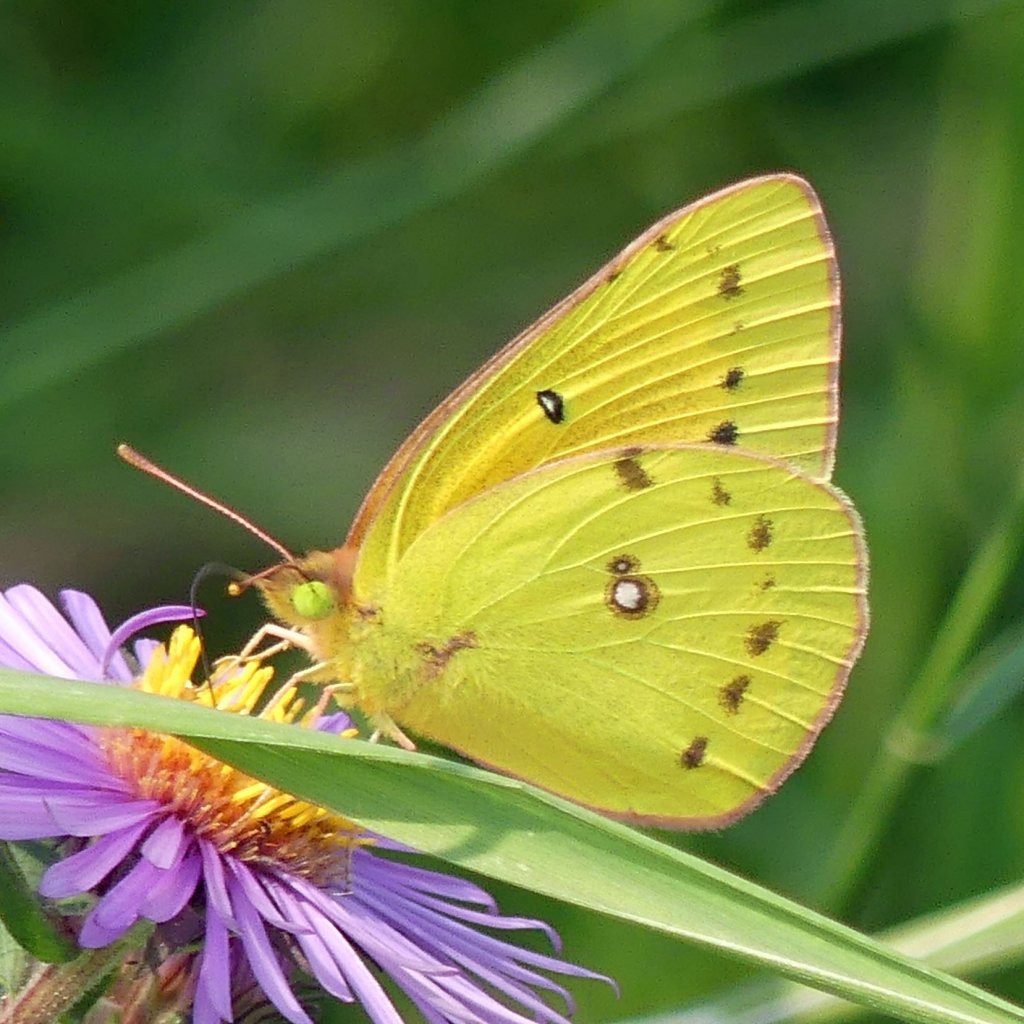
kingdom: Animalia
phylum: Arthropoda
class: Insecta
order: Lepidoptera
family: Pieridae
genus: Colias
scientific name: Colias eurytheme
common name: Orange Sulphur
